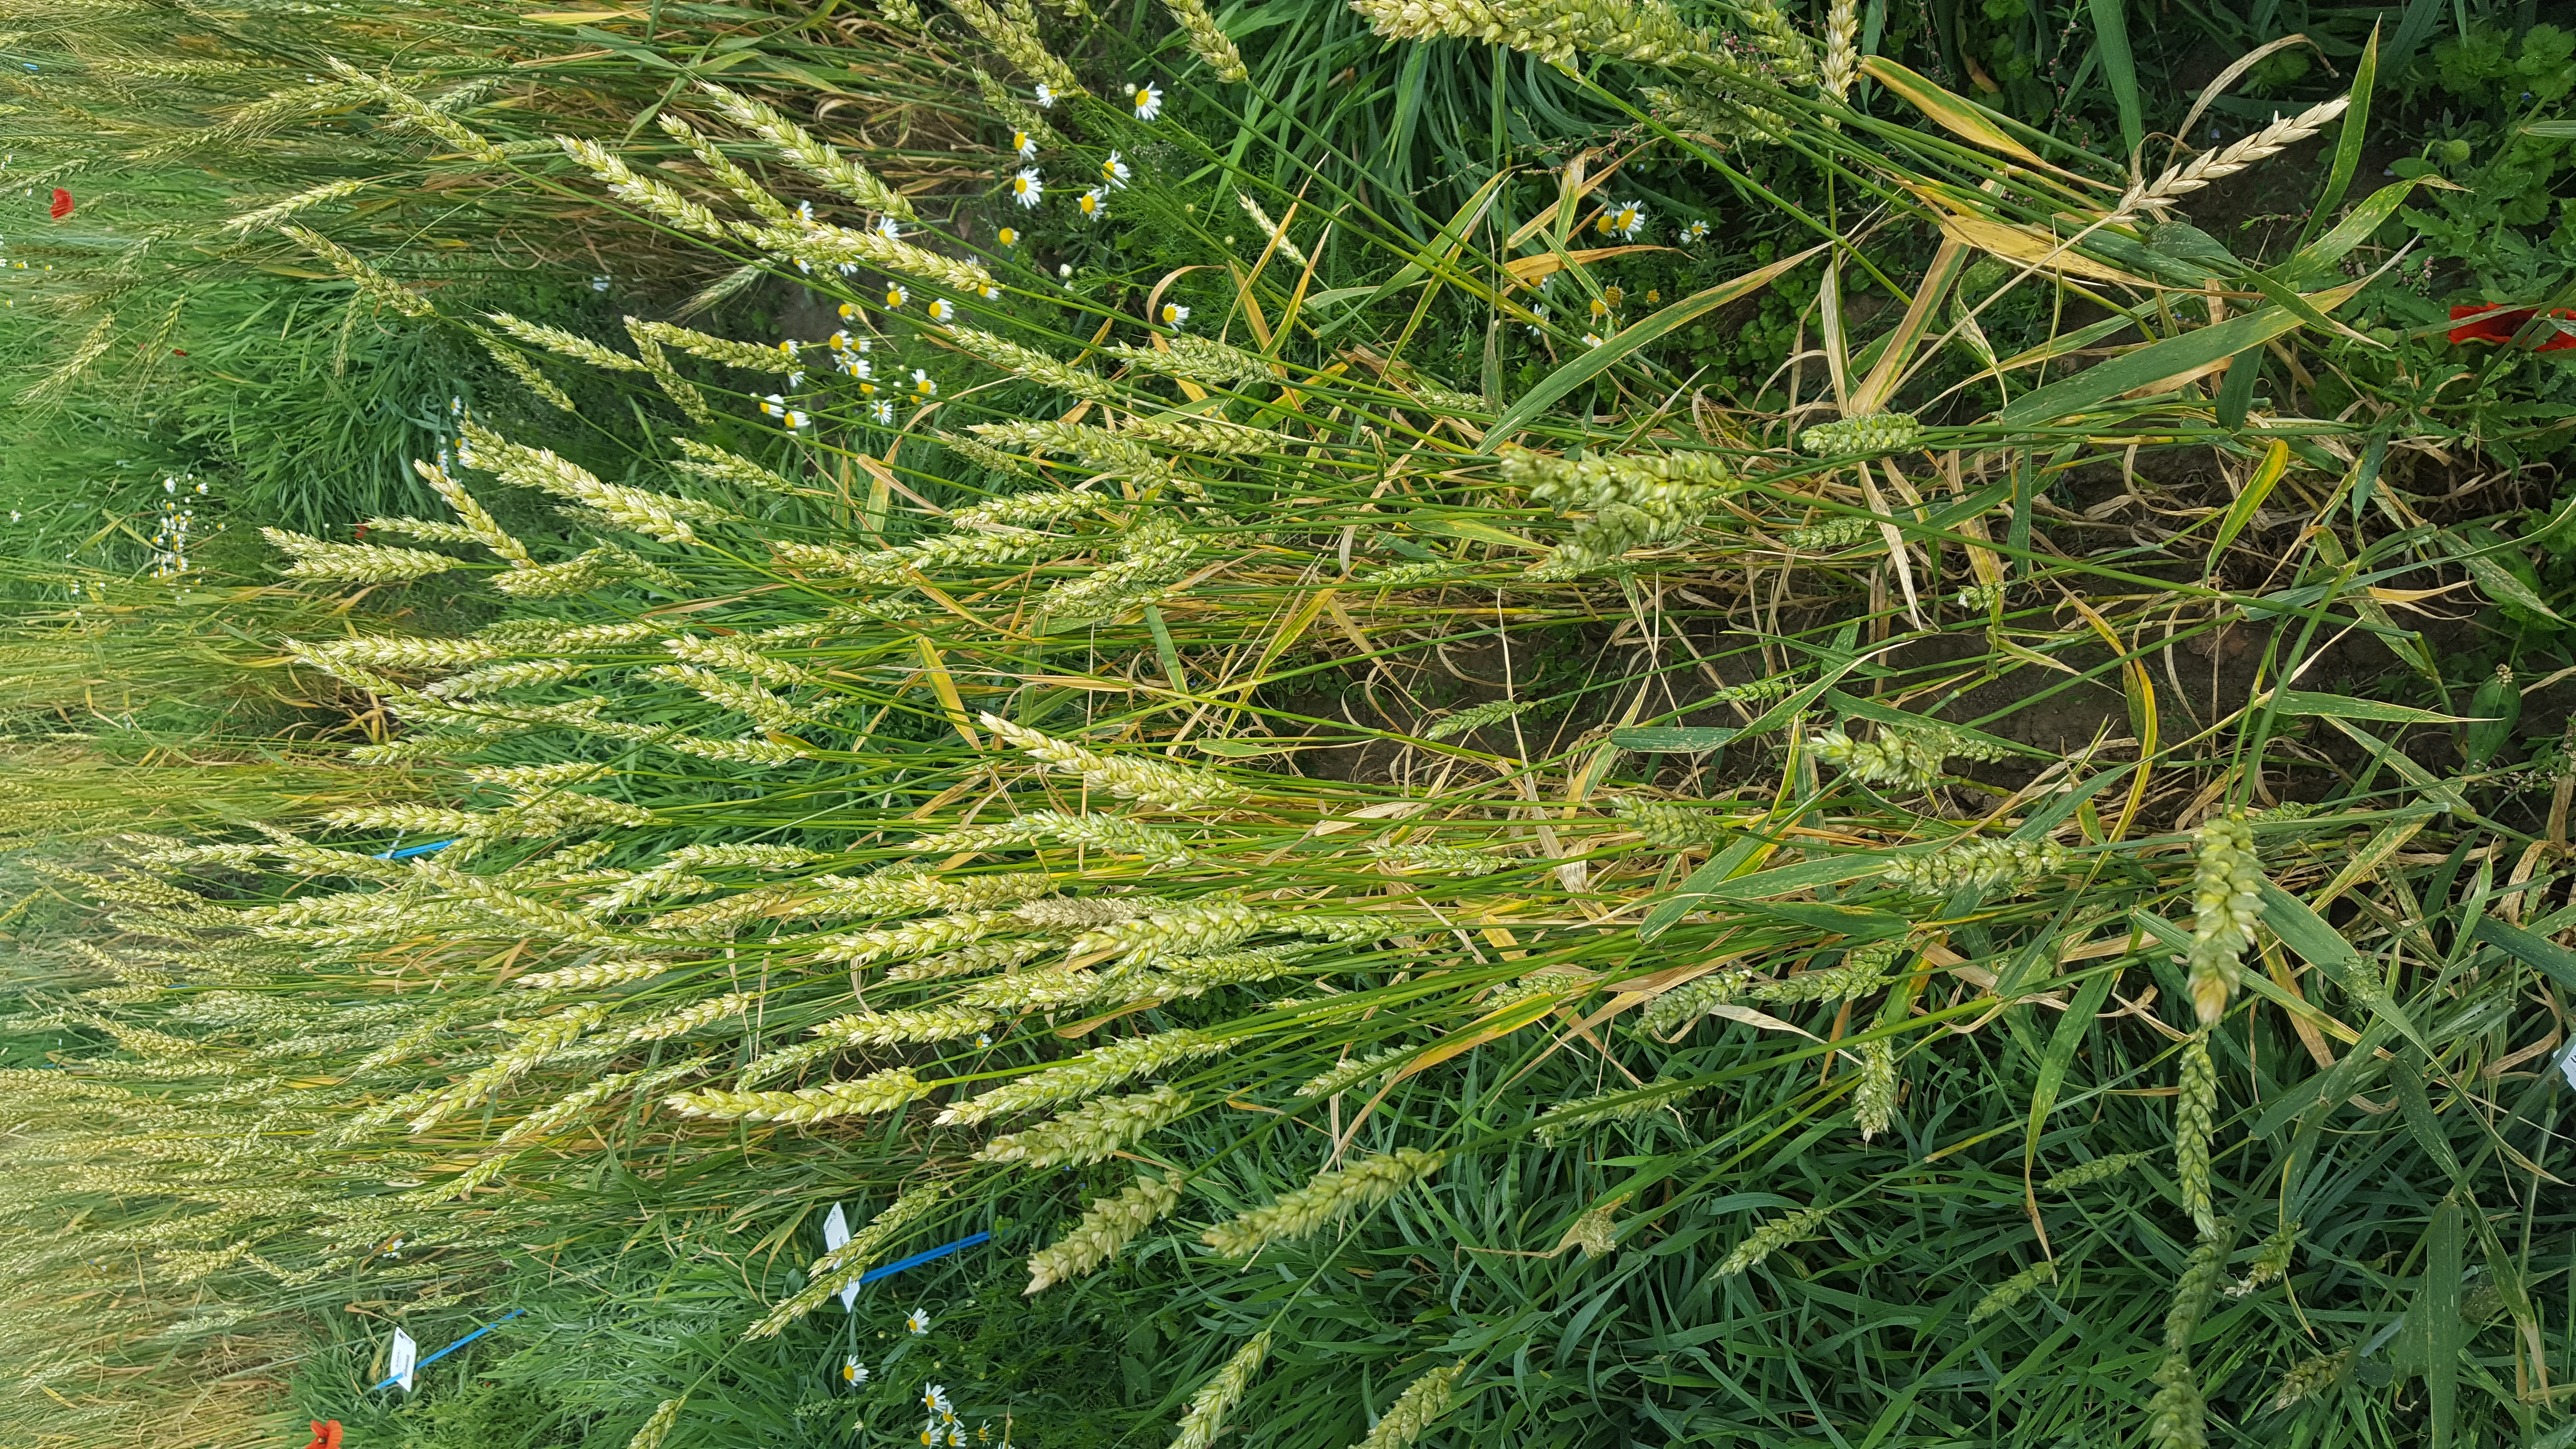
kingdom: Plantae
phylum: Tracheophyta
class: Liliopsida
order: Poales
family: Poaceae
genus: Triticum
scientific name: Triticum aestivum
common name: Common wheat
